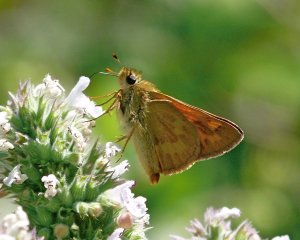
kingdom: Animalia
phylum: Arthropoda
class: Insecta
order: Lepidoptera
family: Hesperiidae
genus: Ochlodes
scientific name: Ochlodes sylvanoides
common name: Woodland Skipper
